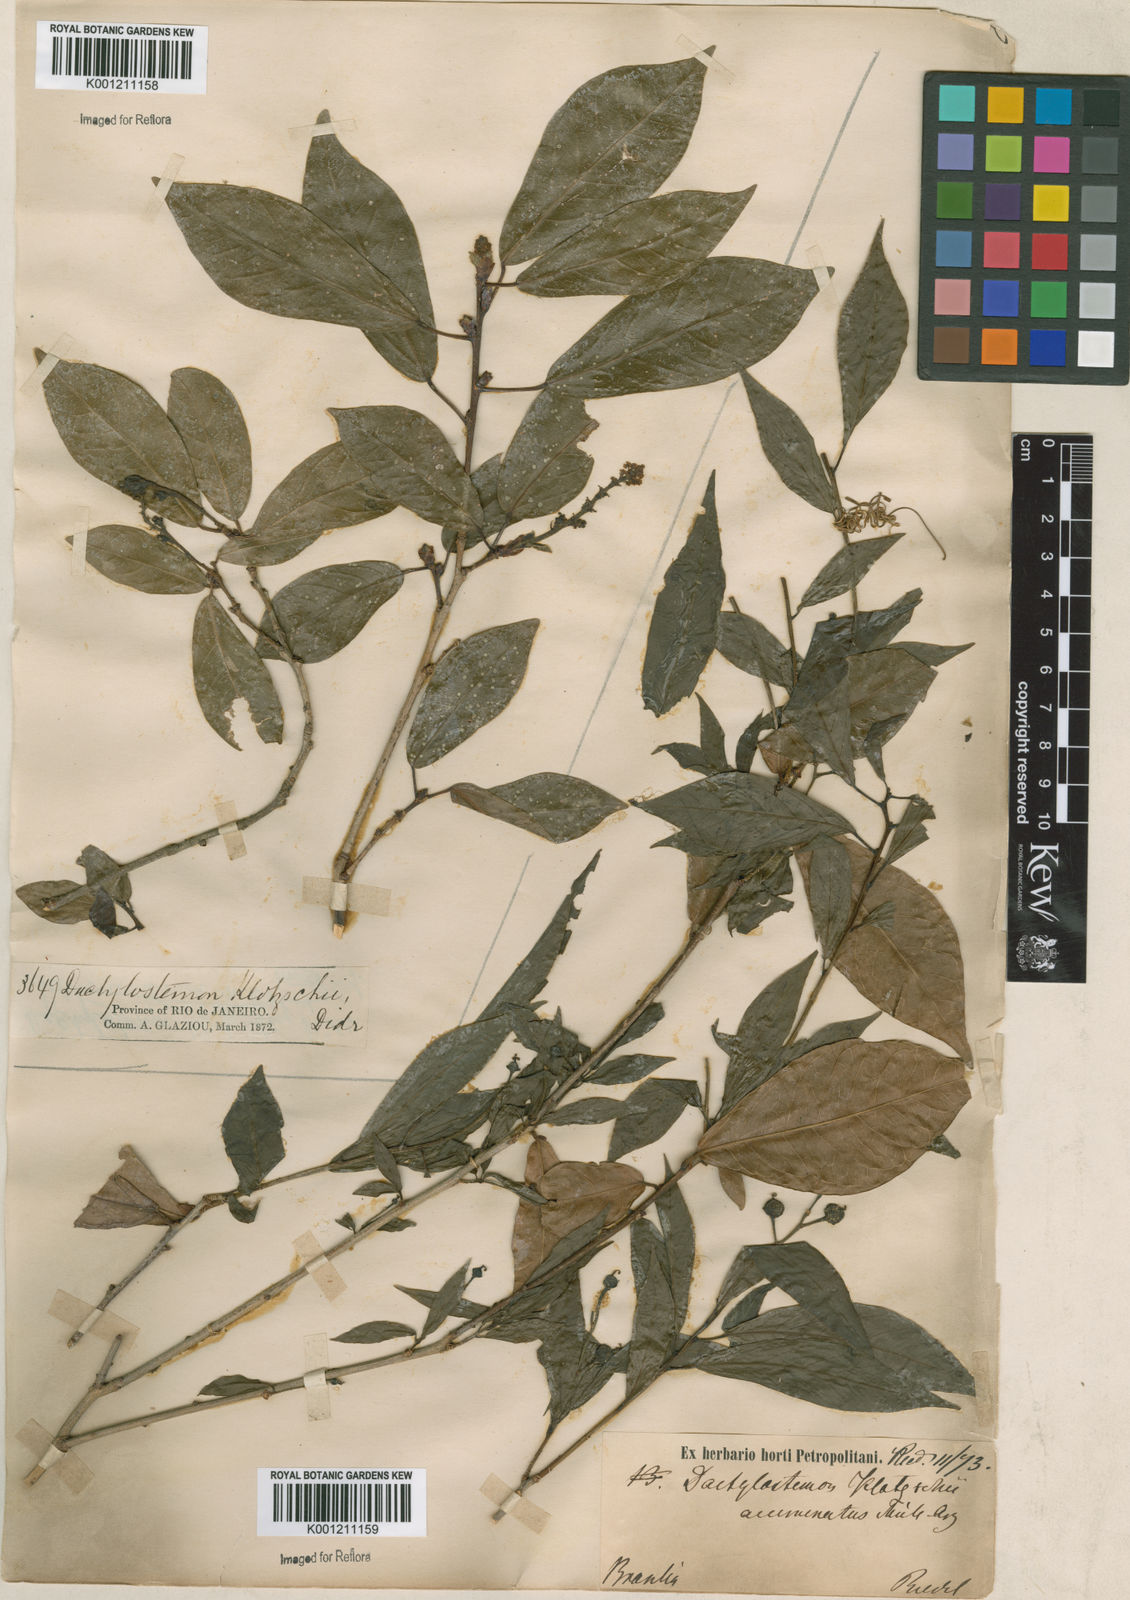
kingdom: Plantae
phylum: Tracheophyta
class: Magnoliopsida
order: Malpighiales
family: Euphorbiaceae
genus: Actinostemon
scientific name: Actinostemon klotzschii
